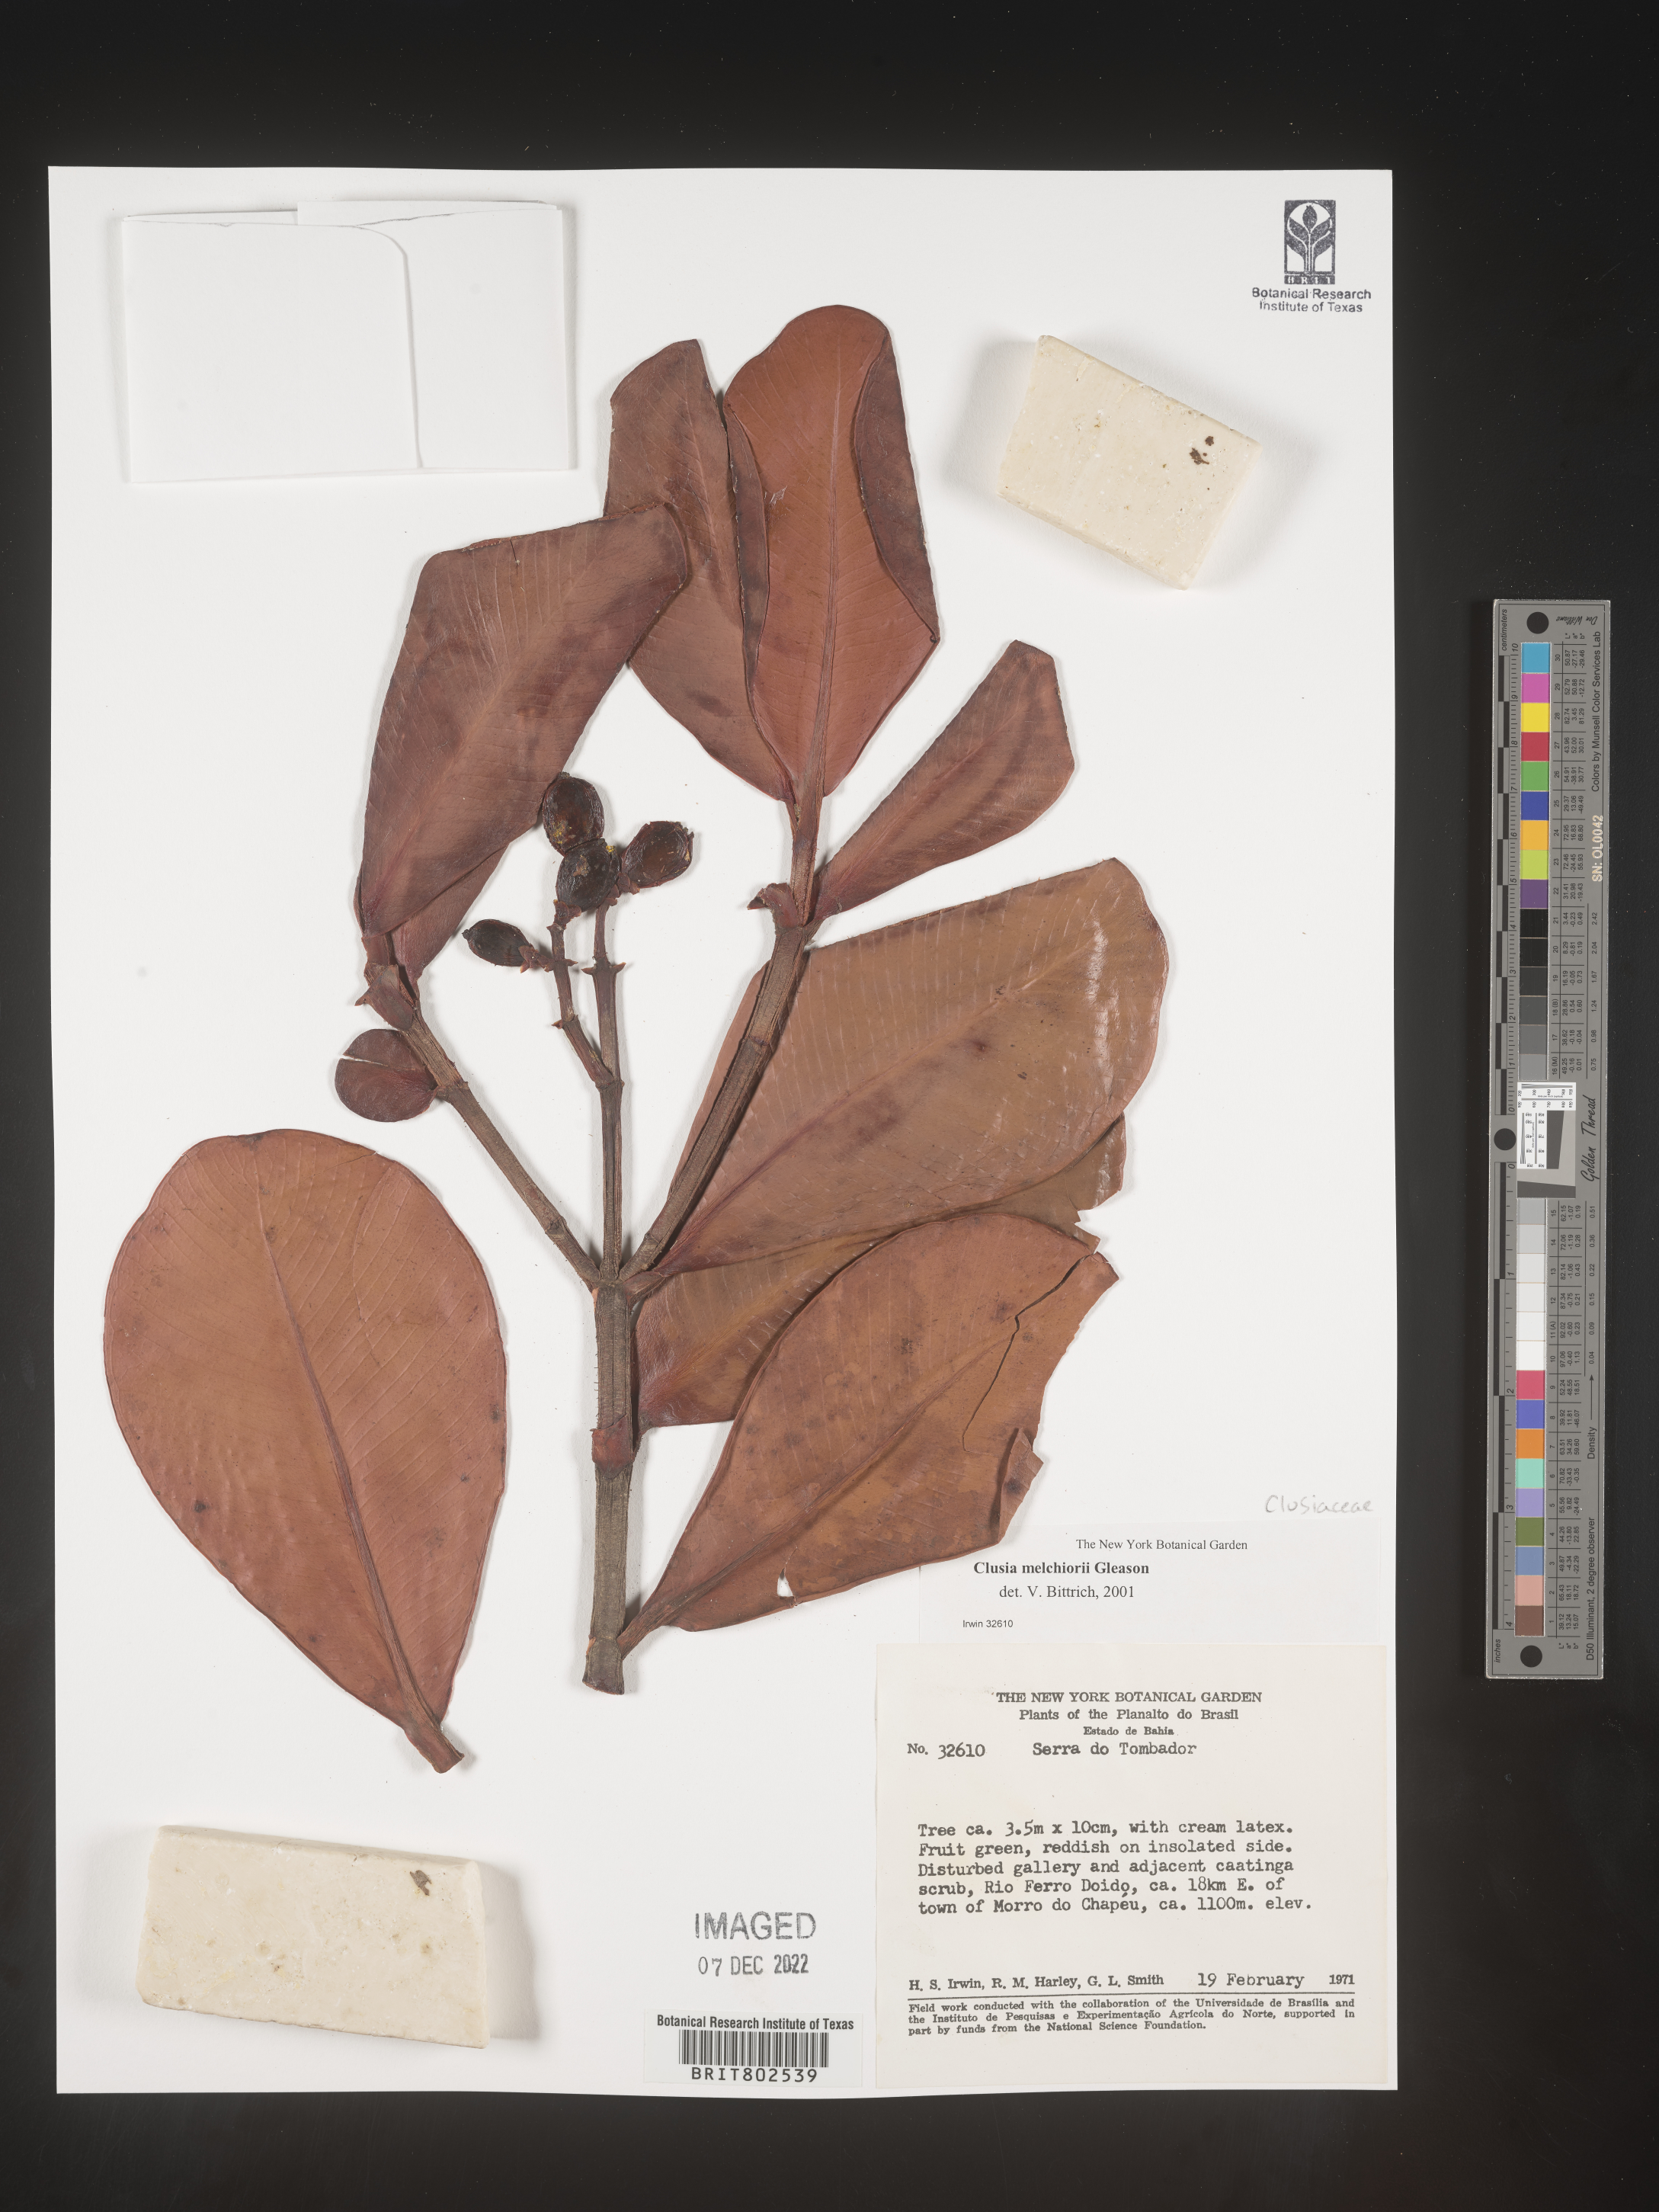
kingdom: Plantae
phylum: Tracheophyta
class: Magnoliopsida
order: Malpighiales
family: Clusiaceae
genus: Clusia
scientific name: Clusia melchiorii
